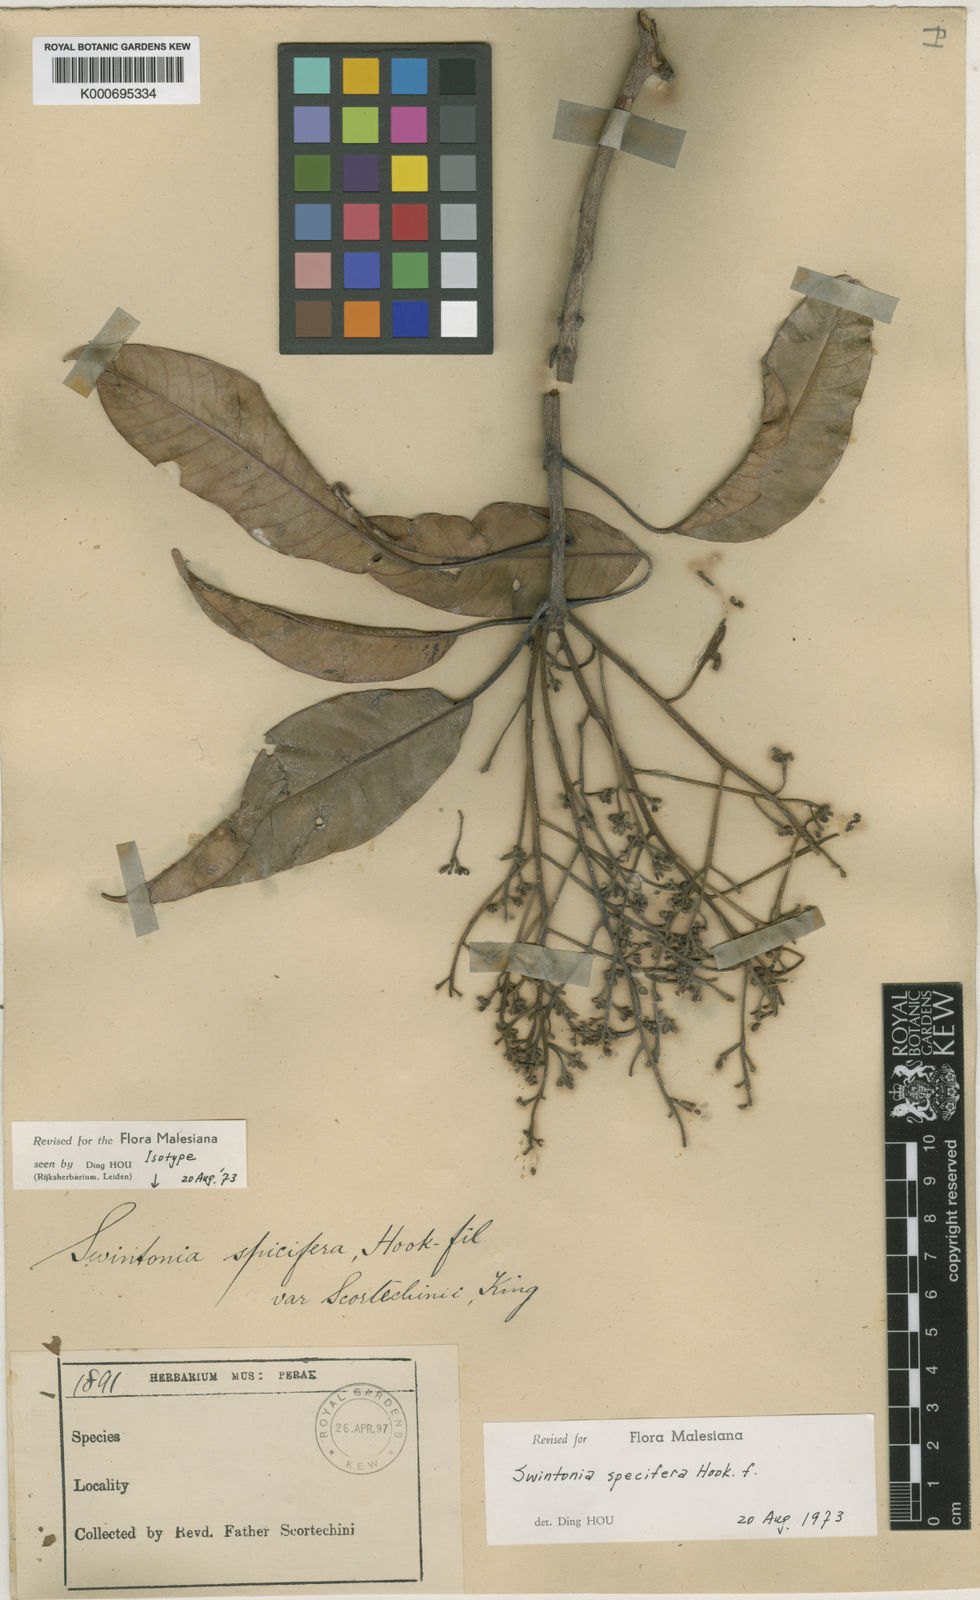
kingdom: Plantae
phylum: Tracheophyta
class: Magnoliopsida
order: Sapindales
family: Anacardiaceae
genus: Swintonia
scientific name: Swintonia spicifera
